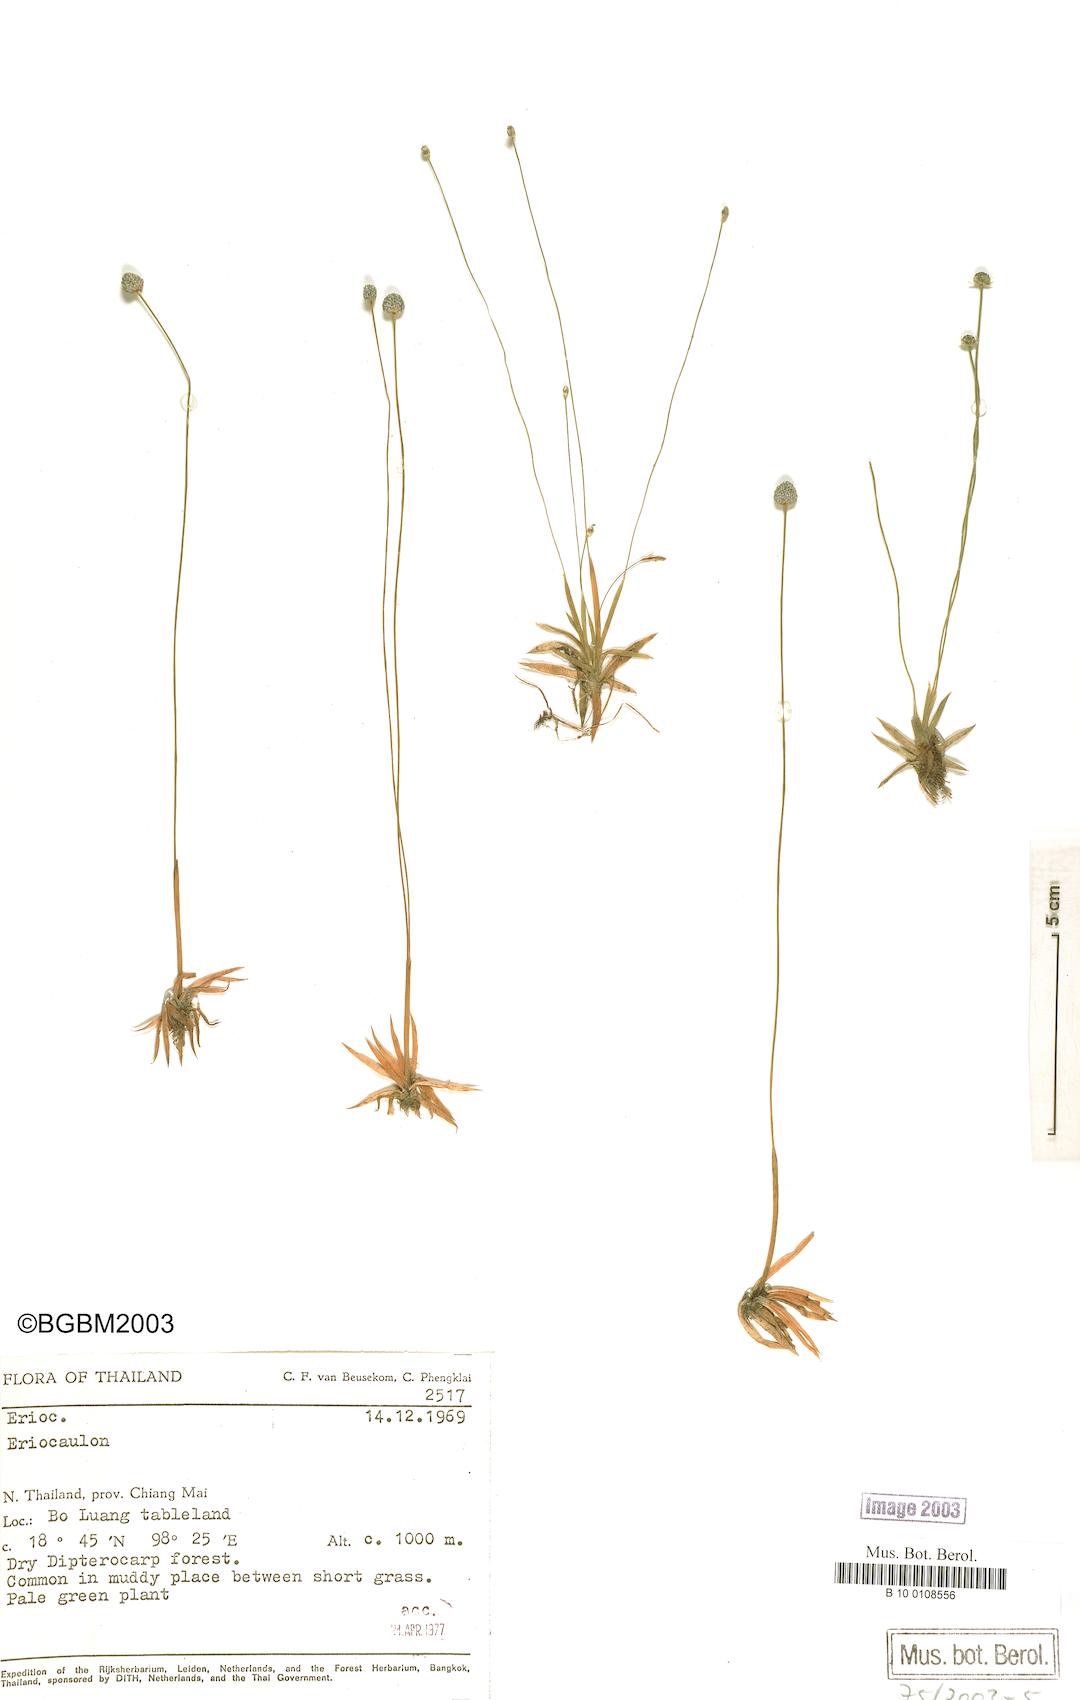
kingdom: Plantae
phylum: Tracheophyta
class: Liliopsida
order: Poales
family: Eriocaulaceae
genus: Eriocaulon
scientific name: Eriocaulon
